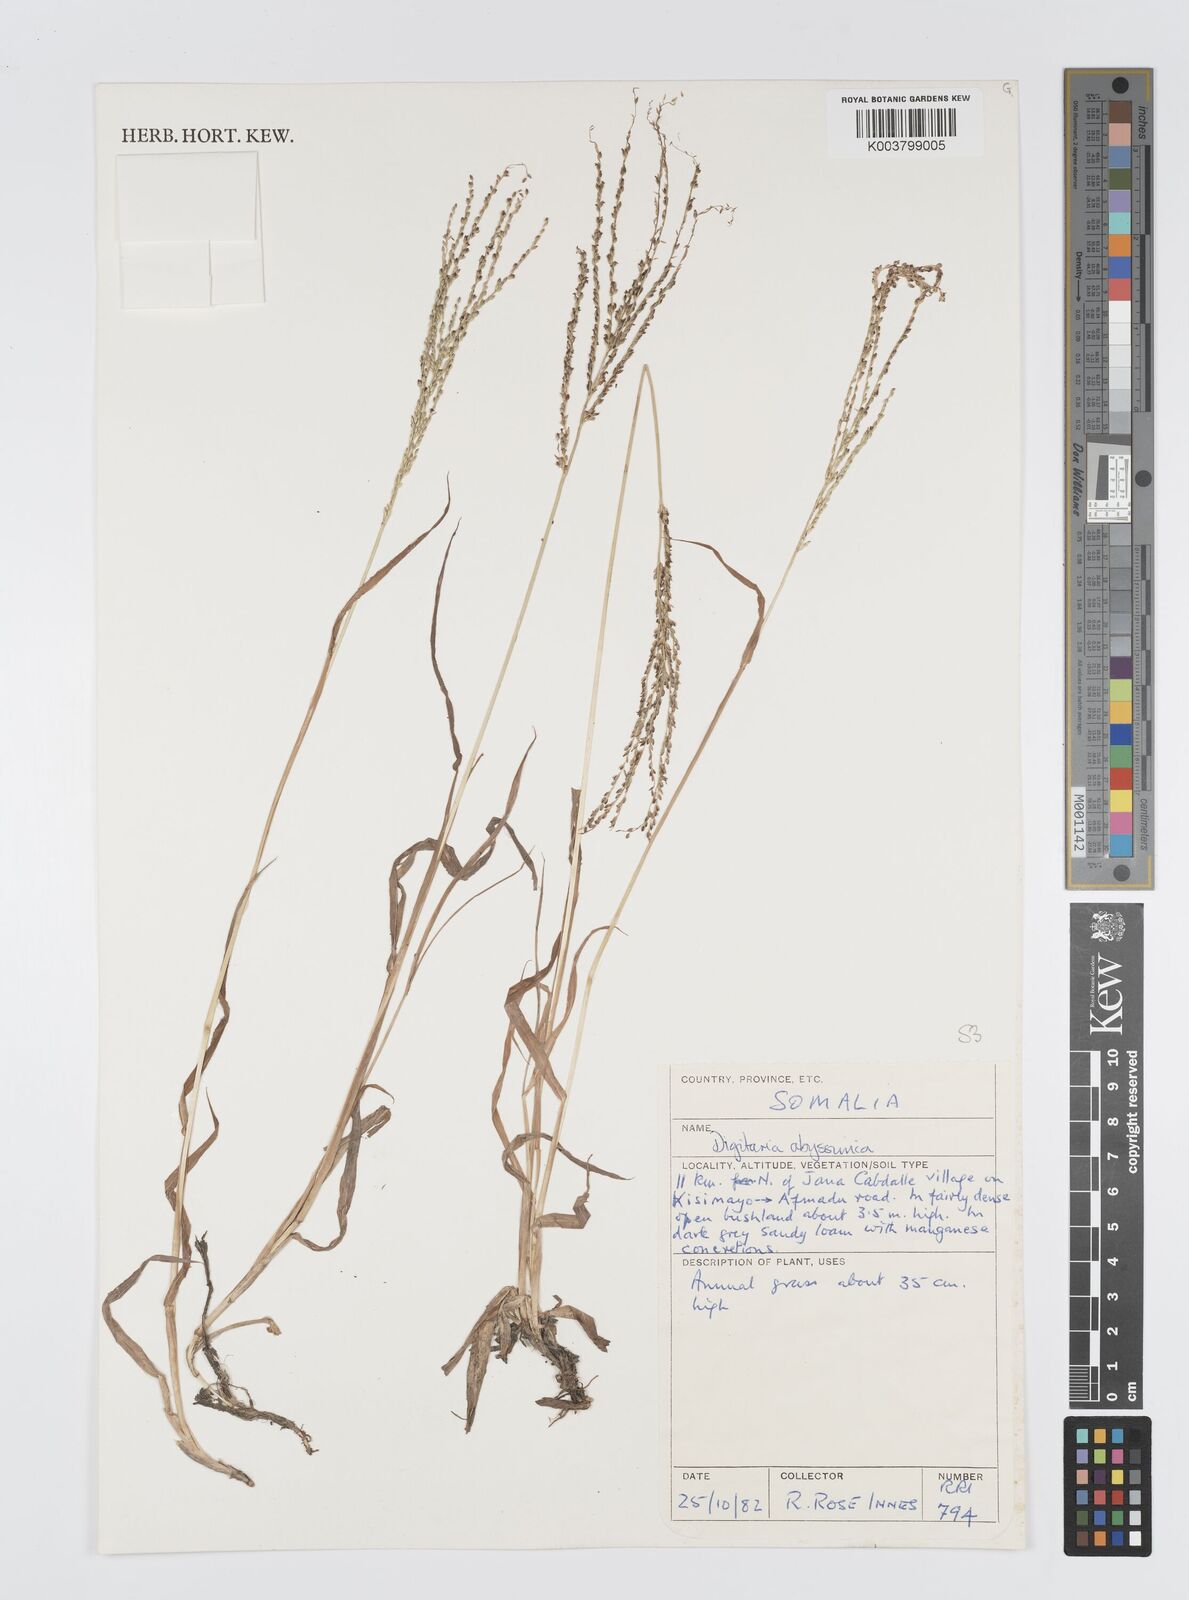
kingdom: Plantae
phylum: Tracheophyta
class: Liliopsida
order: Poales
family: Poaceae
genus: Digitaria
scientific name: Digitaria abyssinica
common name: African couchgrass
